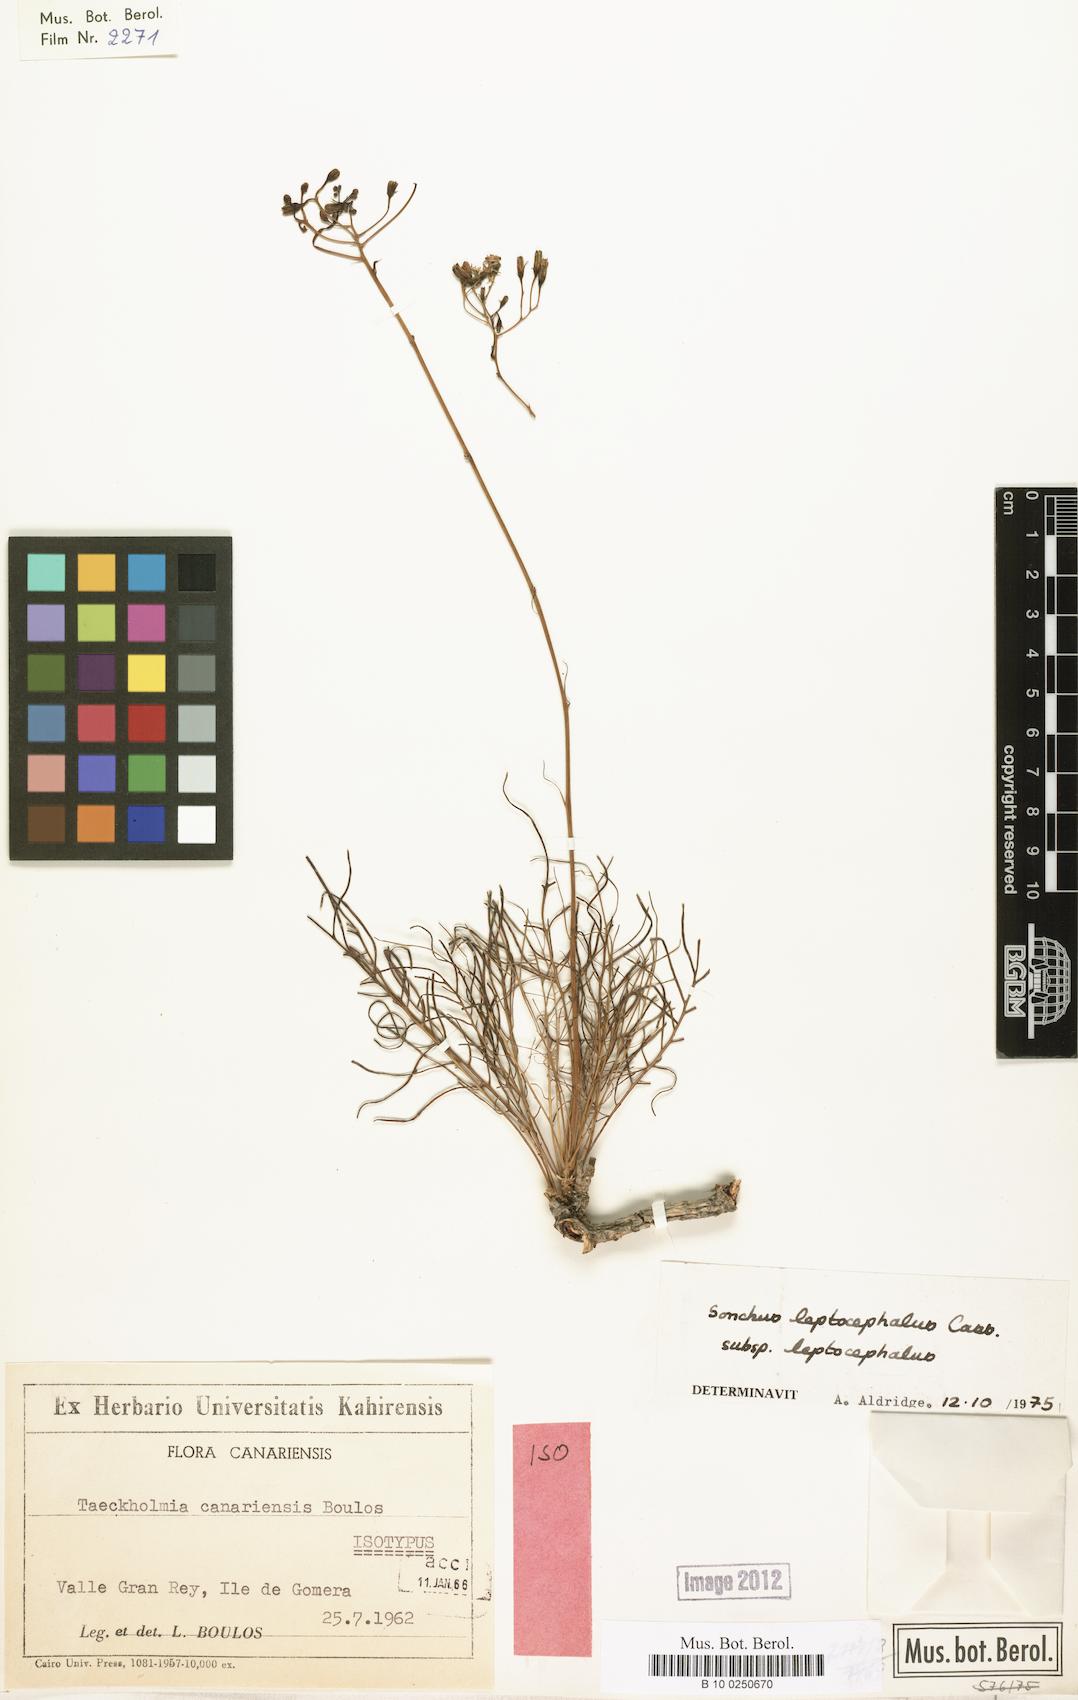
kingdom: Plantae
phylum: Tracheophyta
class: Magnoliopsida
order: Asterales
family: Asteraceae
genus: Sonchus
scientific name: Sonchus leptocephalus
